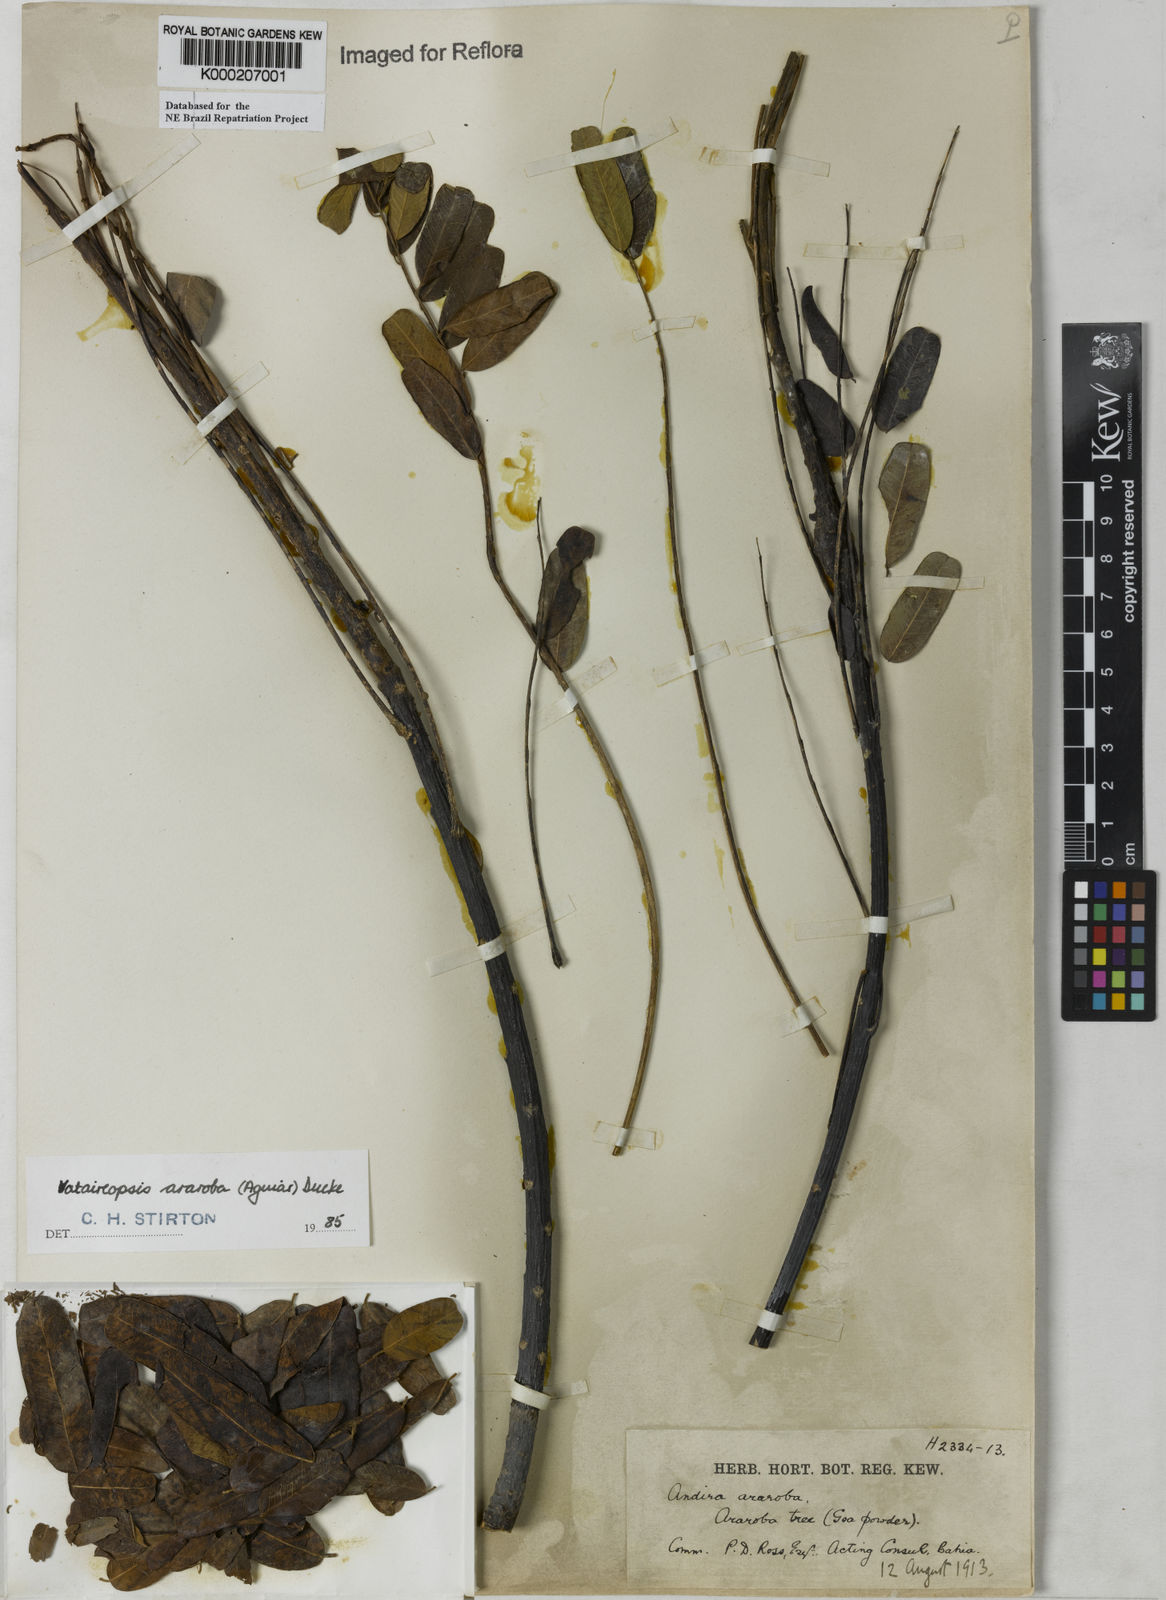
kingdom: Plantae
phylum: Tracheophyta
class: Magnoliopsida
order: Fabales
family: Fabaceae
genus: Vataireopsis
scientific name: Vataireopsis araroba
